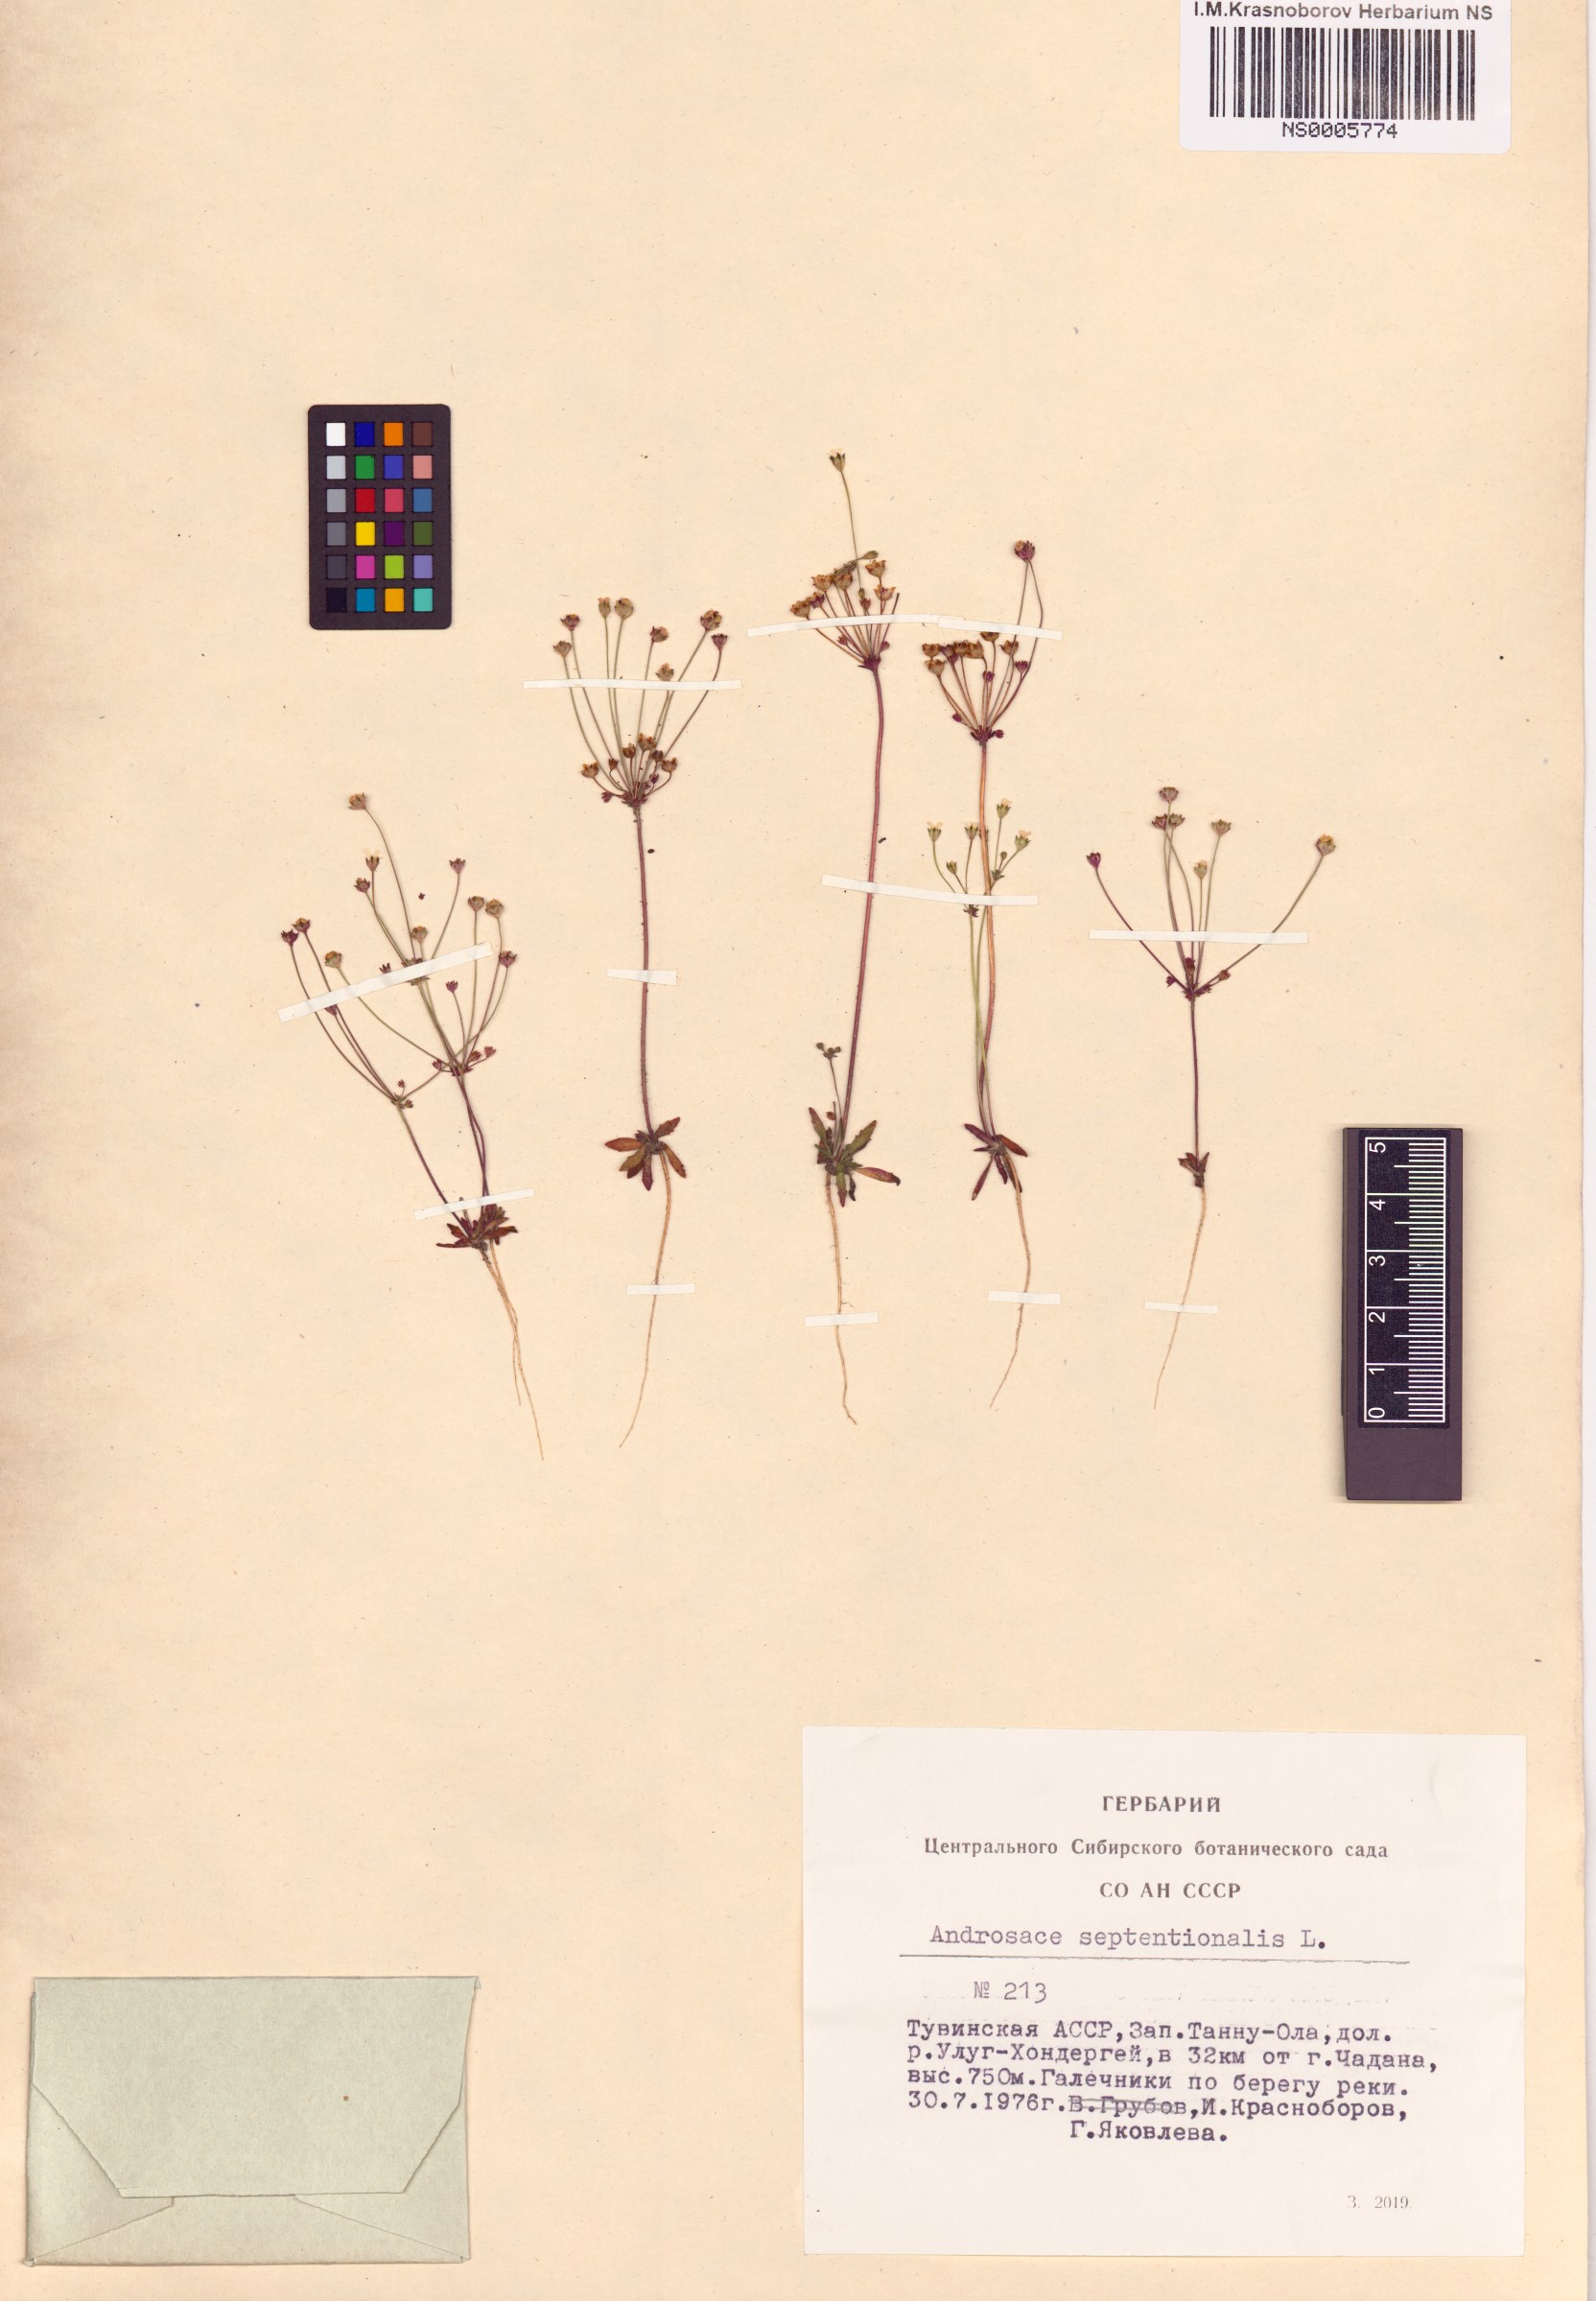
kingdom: Plantae
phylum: Tracheophyta
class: Magnoliopsida
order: Ericales
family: Primulaceae
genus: Androsace
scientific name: Androsace septentrionalis
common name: Hairy northern fairy-candelabra
